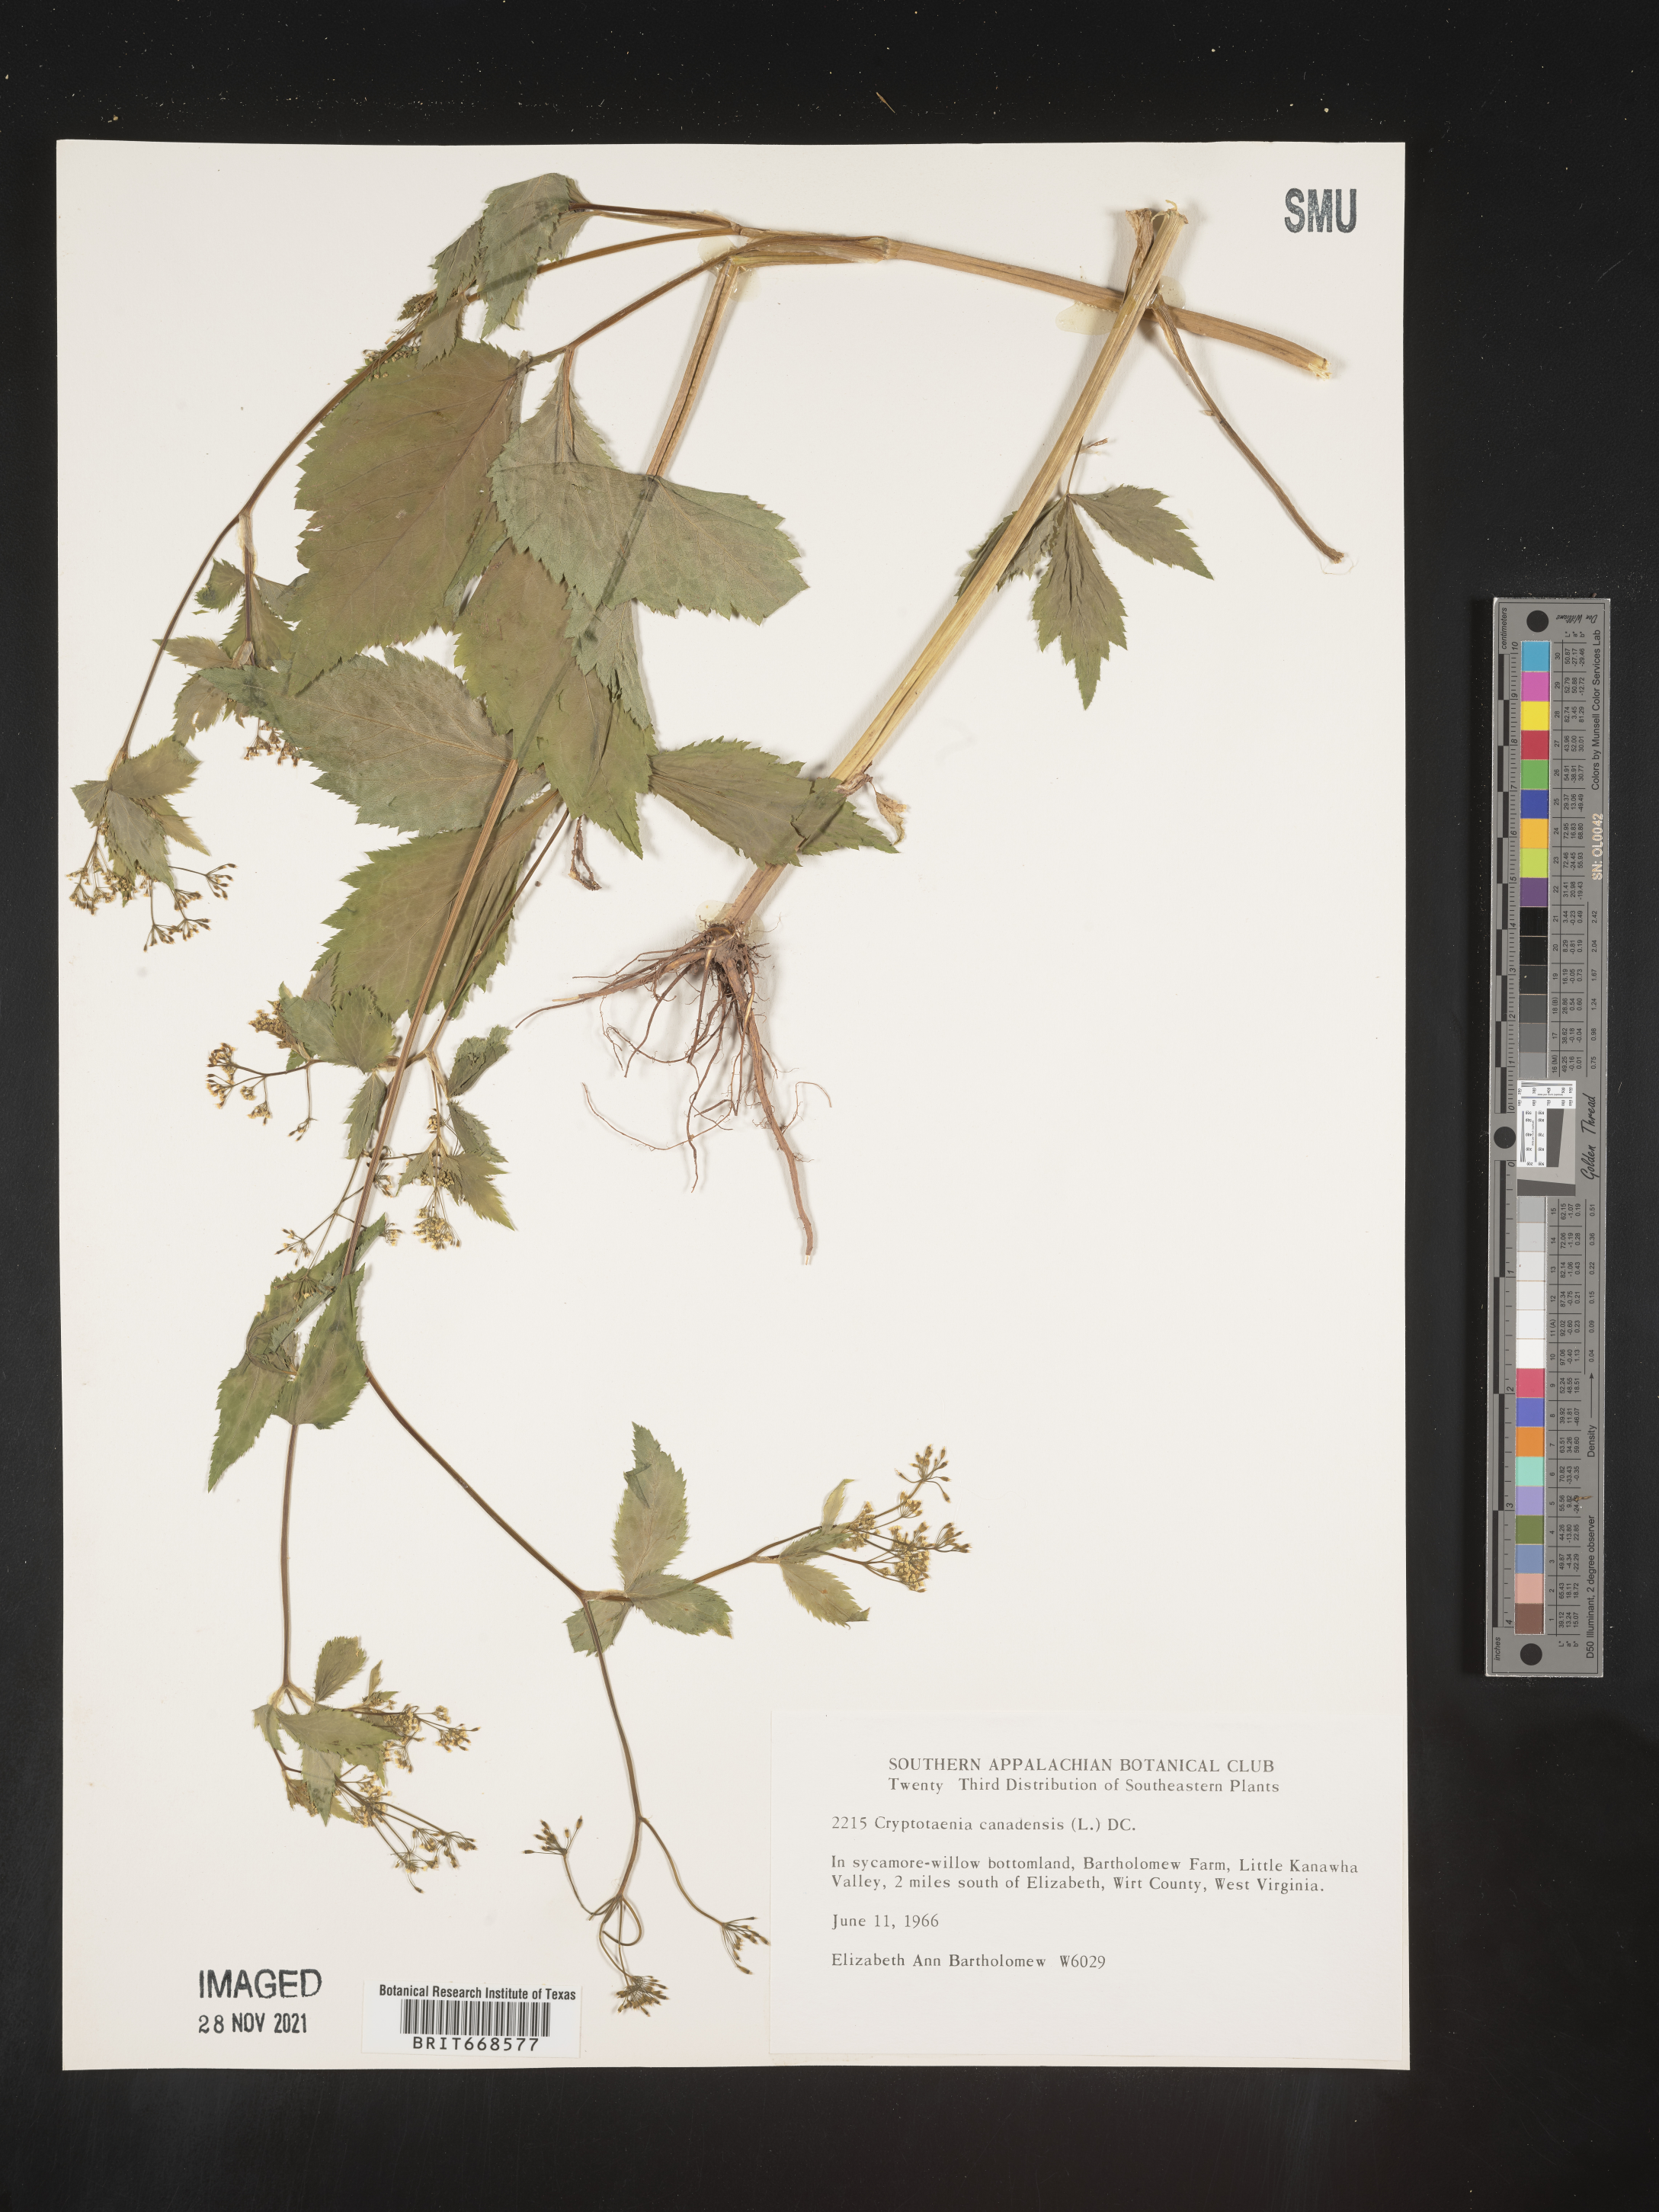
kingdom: Plantae
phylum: Tracheophyta
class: Magnoliopsida
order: Apiales
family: Apiaceae
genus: Cryptotaenia
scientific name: Cryptotaenia canadensis
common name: Honewort
